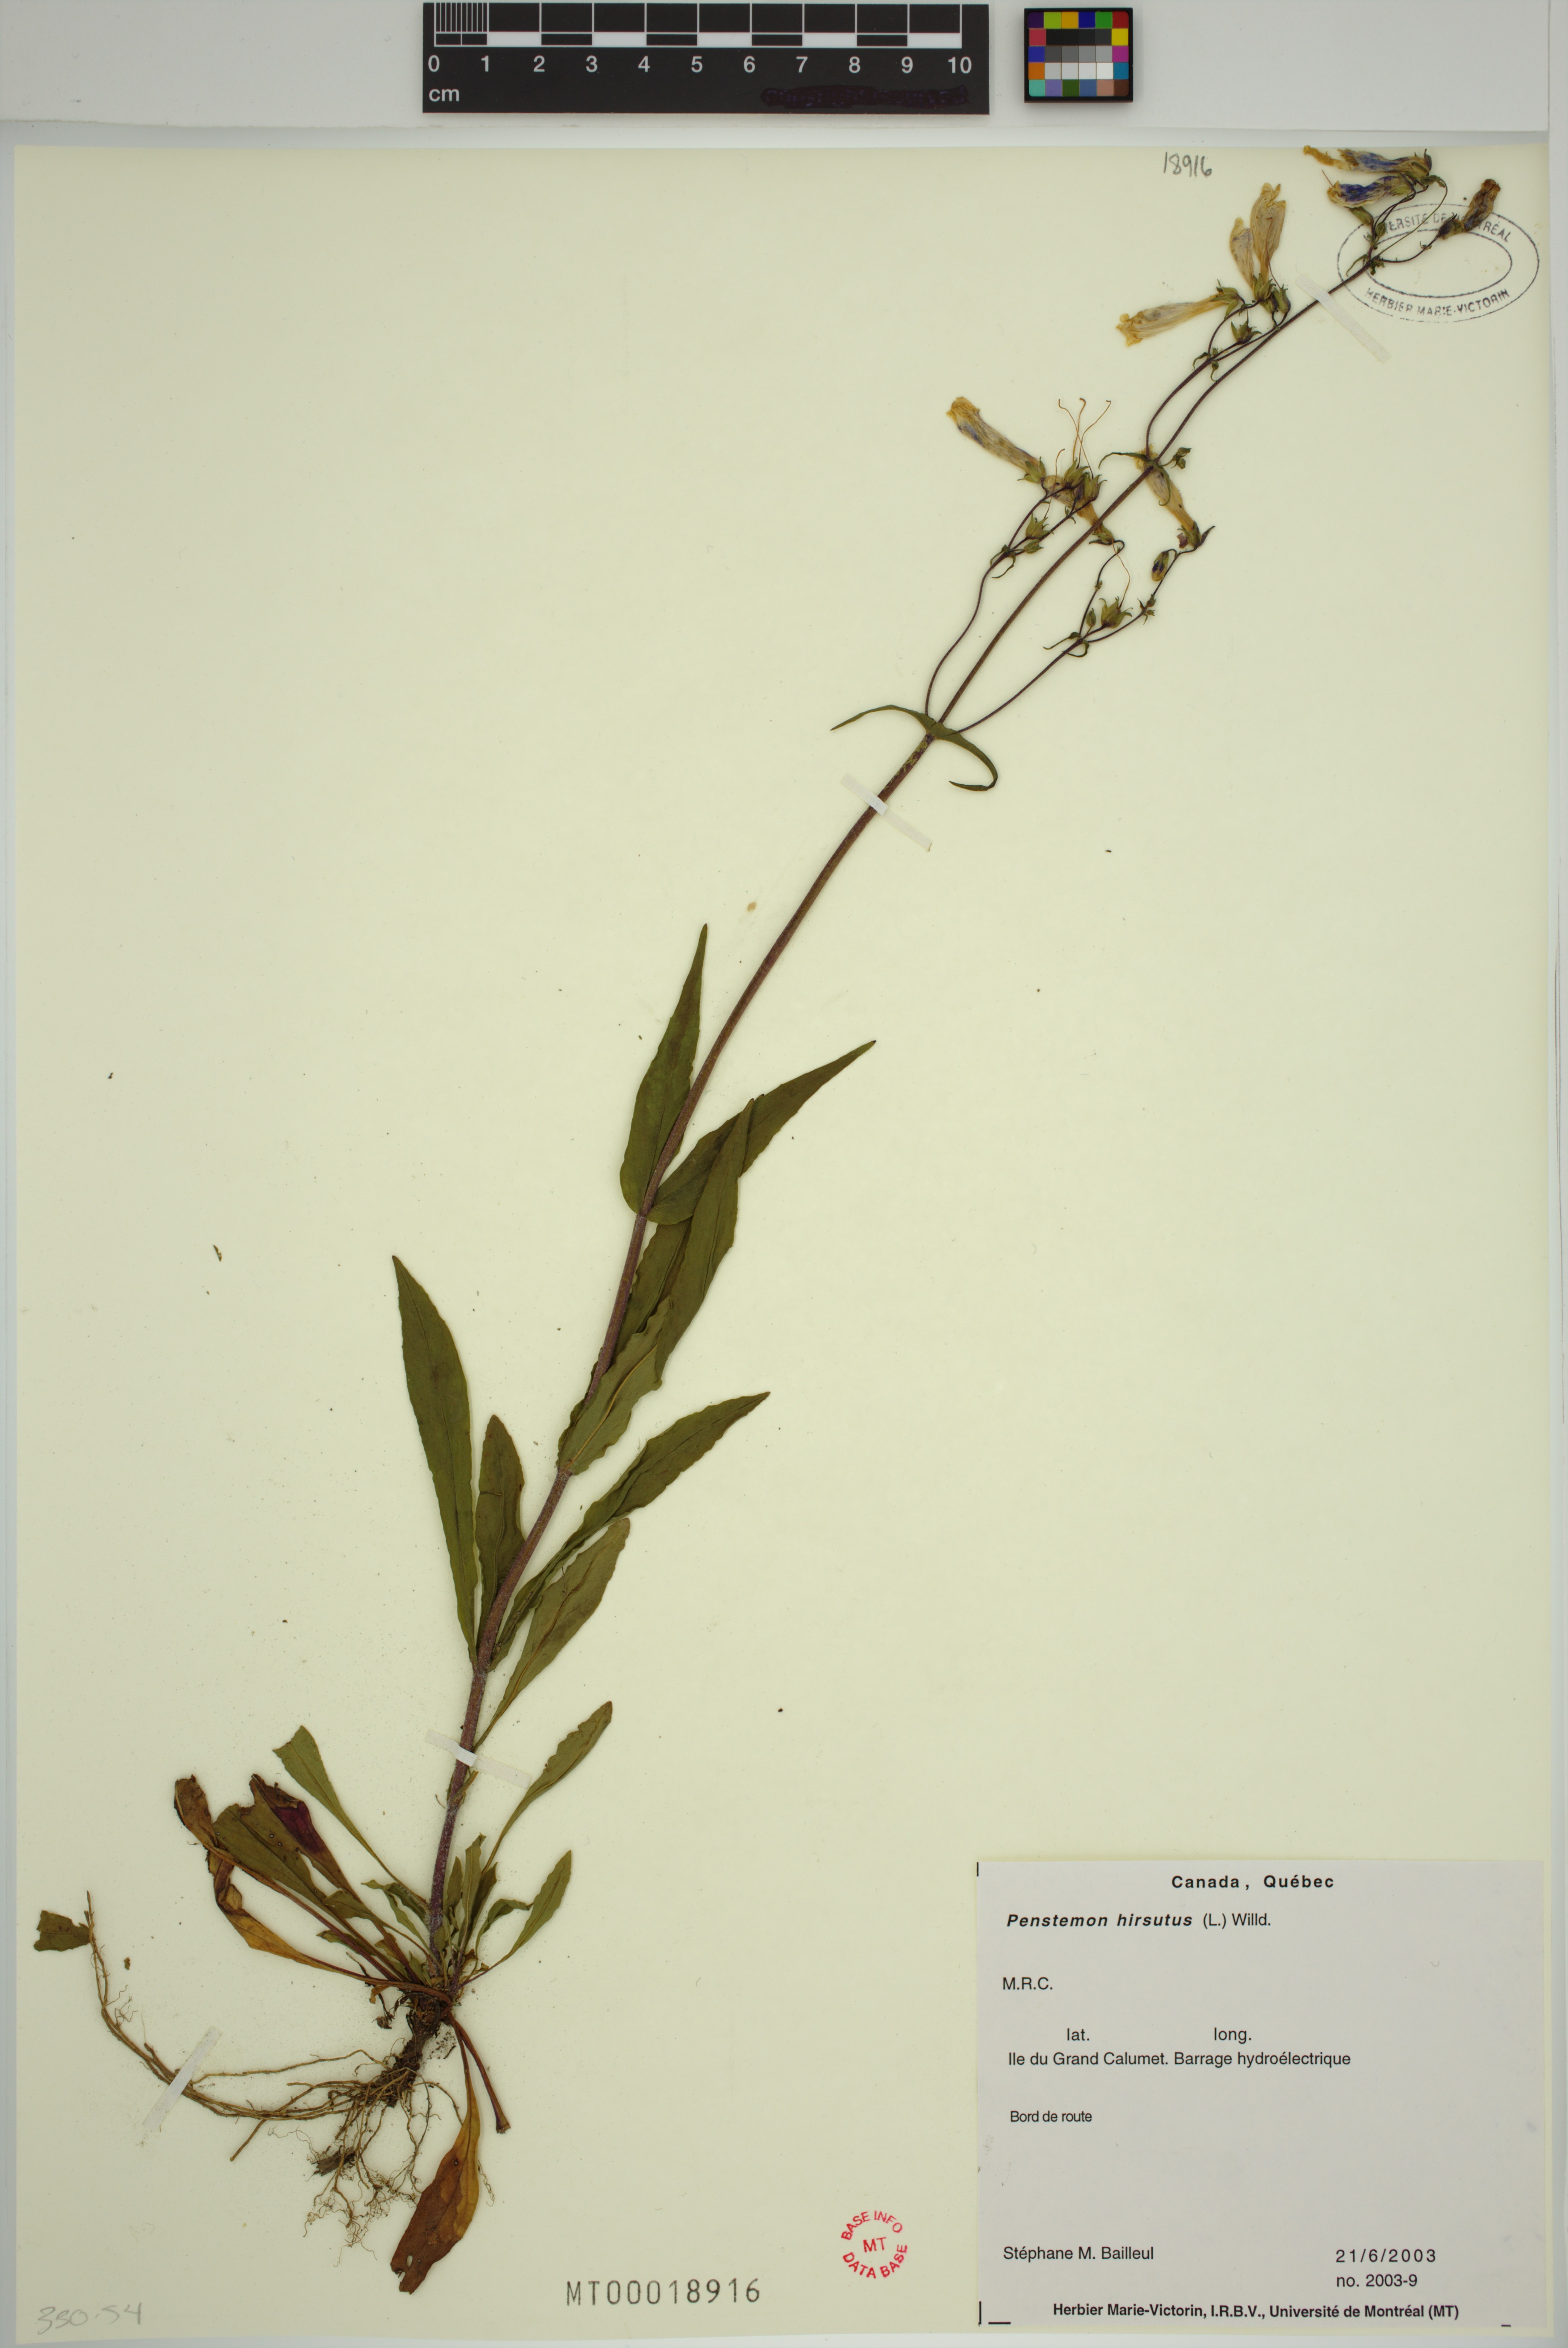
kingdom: Plantae
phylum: Tracheophyta
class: Magnoliopsida
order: Lamiales
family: Plantaginaceae
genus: Penstemon
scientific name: Penstemon hirsutus
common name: Hairy beardtongue
